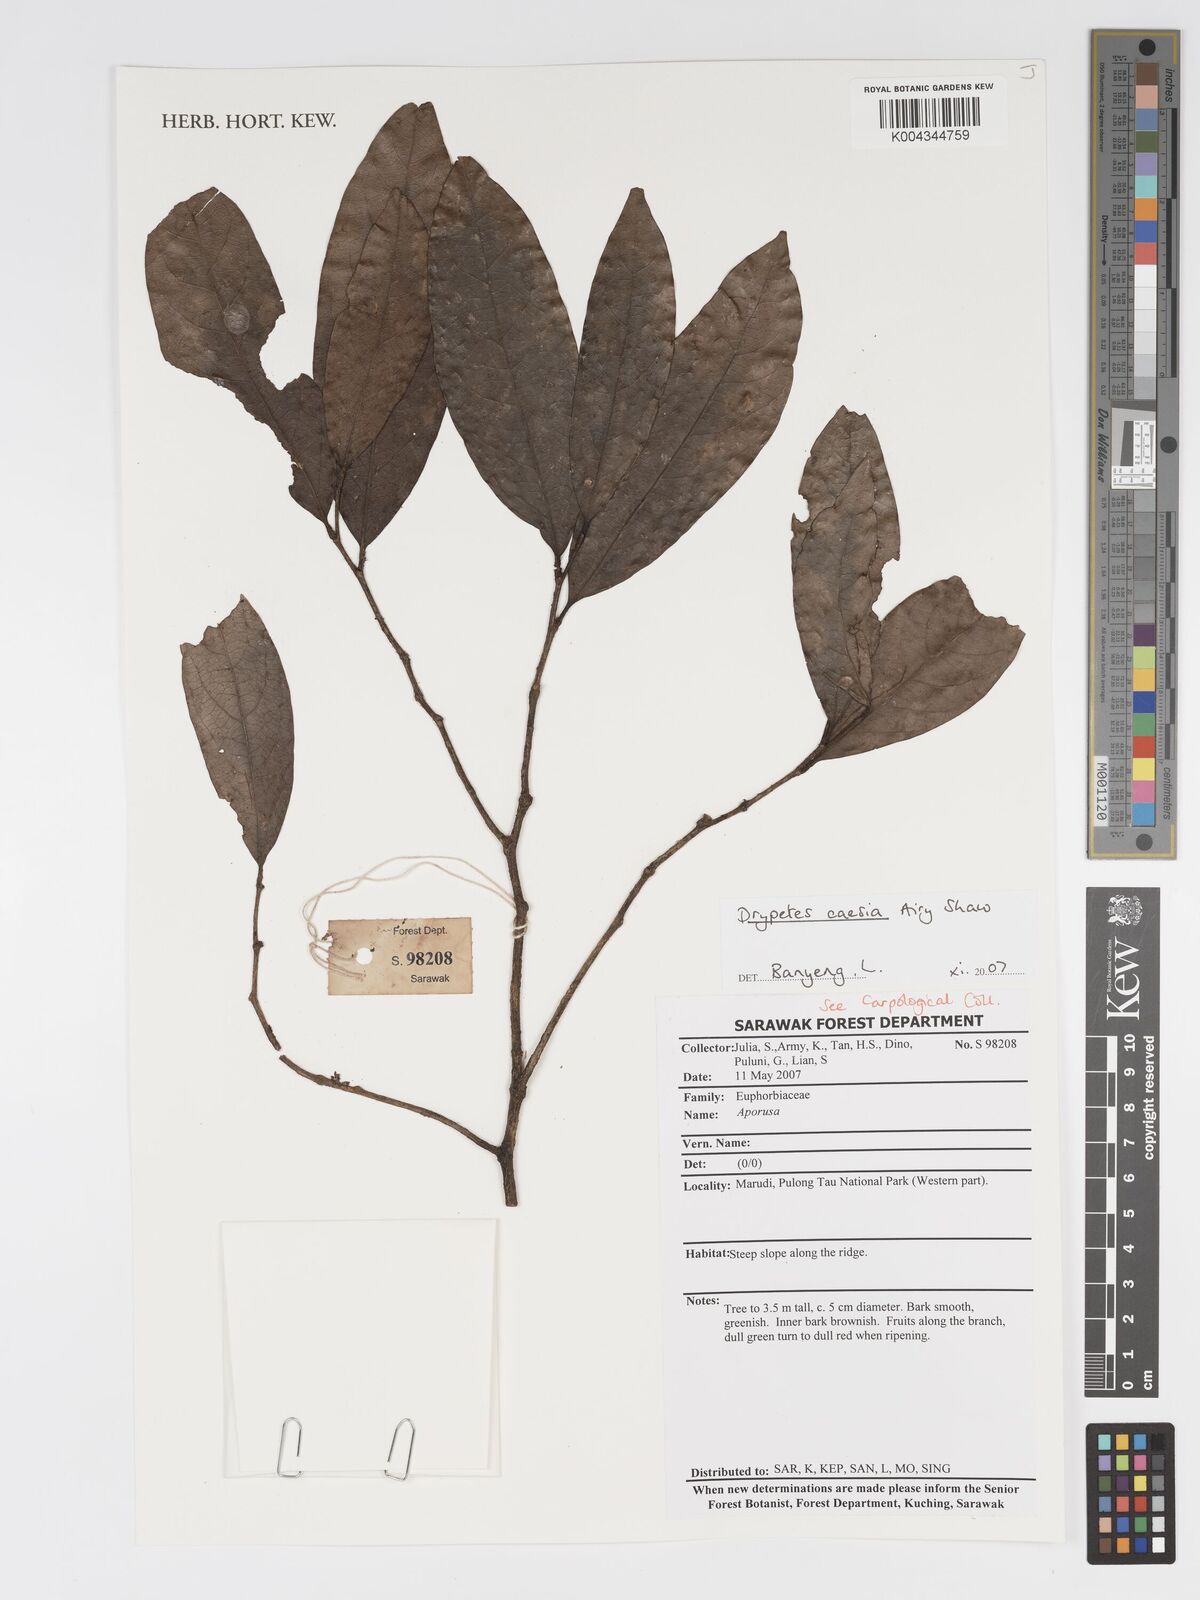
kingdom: Plantae
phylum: Tracheophyta
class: Magnoliopsida
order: Malpighiales
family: Putranjivaceae
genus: Drypetes
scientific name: Drypetes caesia
